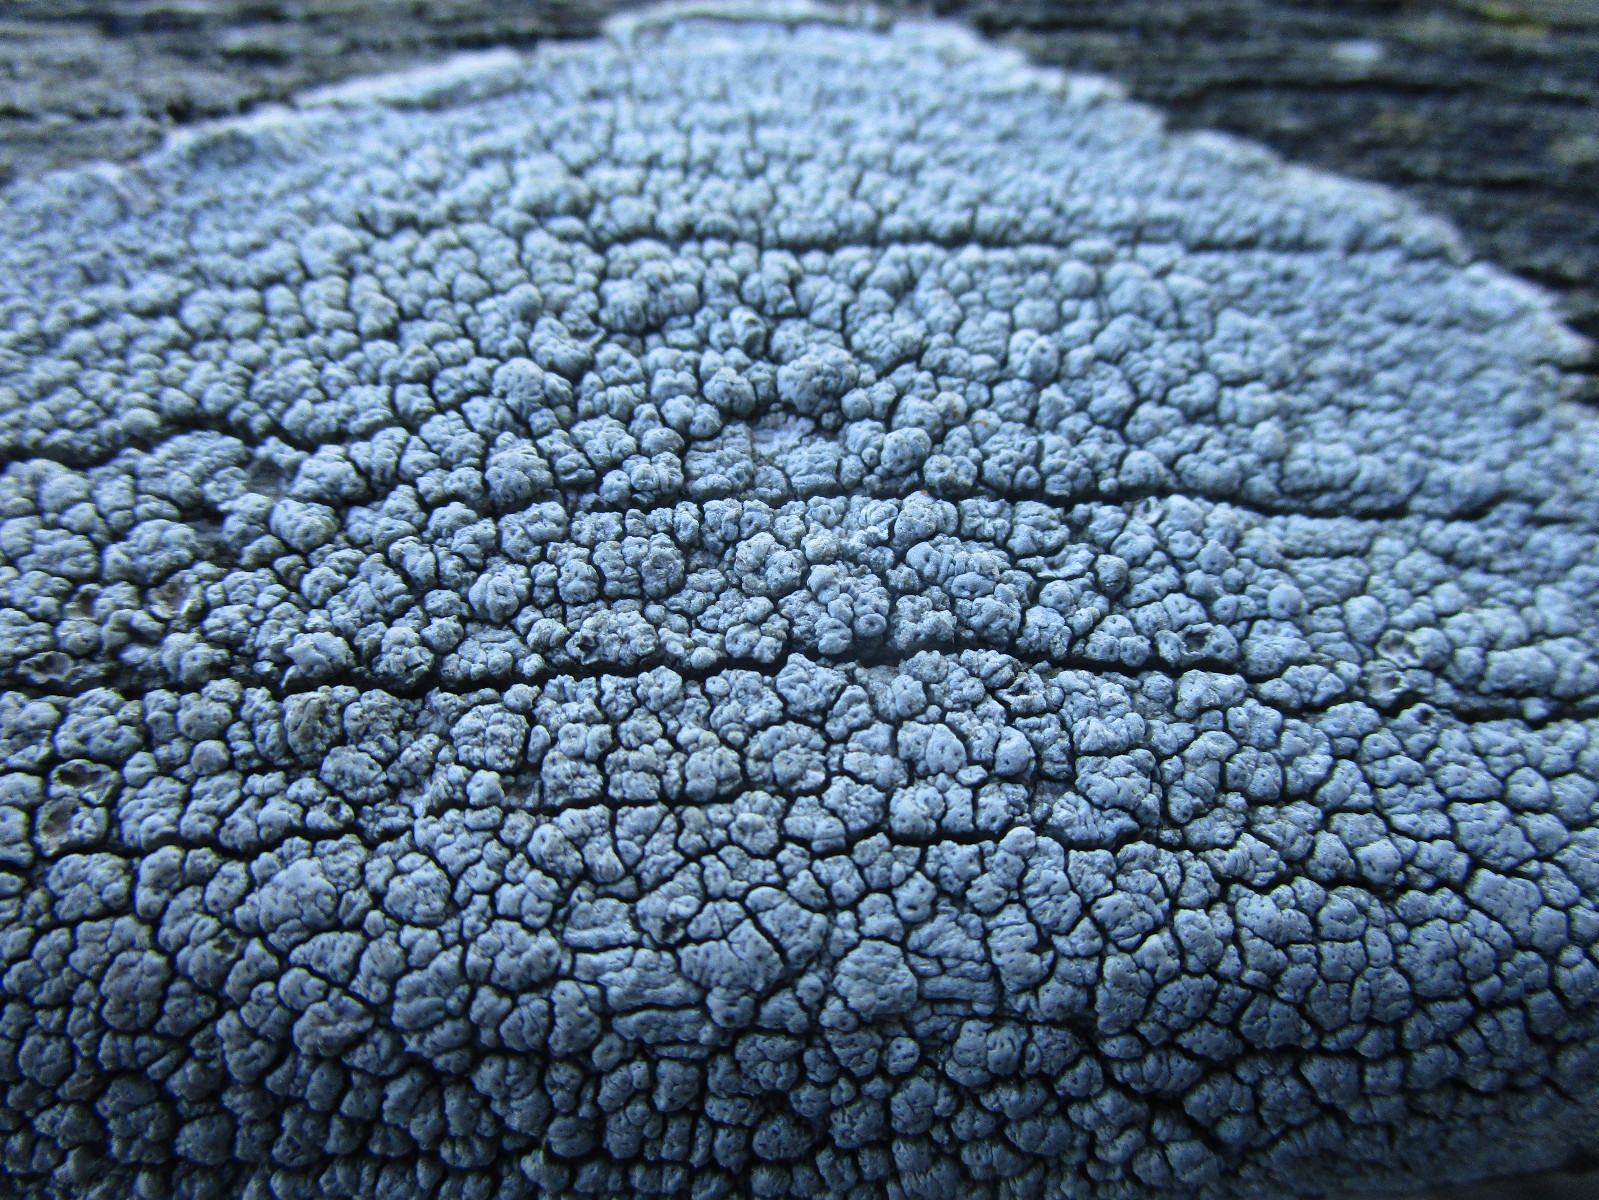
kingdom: Fungi
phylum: Ascomycota
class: Lecanoromycetes
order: Pertusariales
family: Pertusariaceae
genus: Pertusaria
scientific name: Pertusaria pertusa
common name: almindelig prikvortelav
